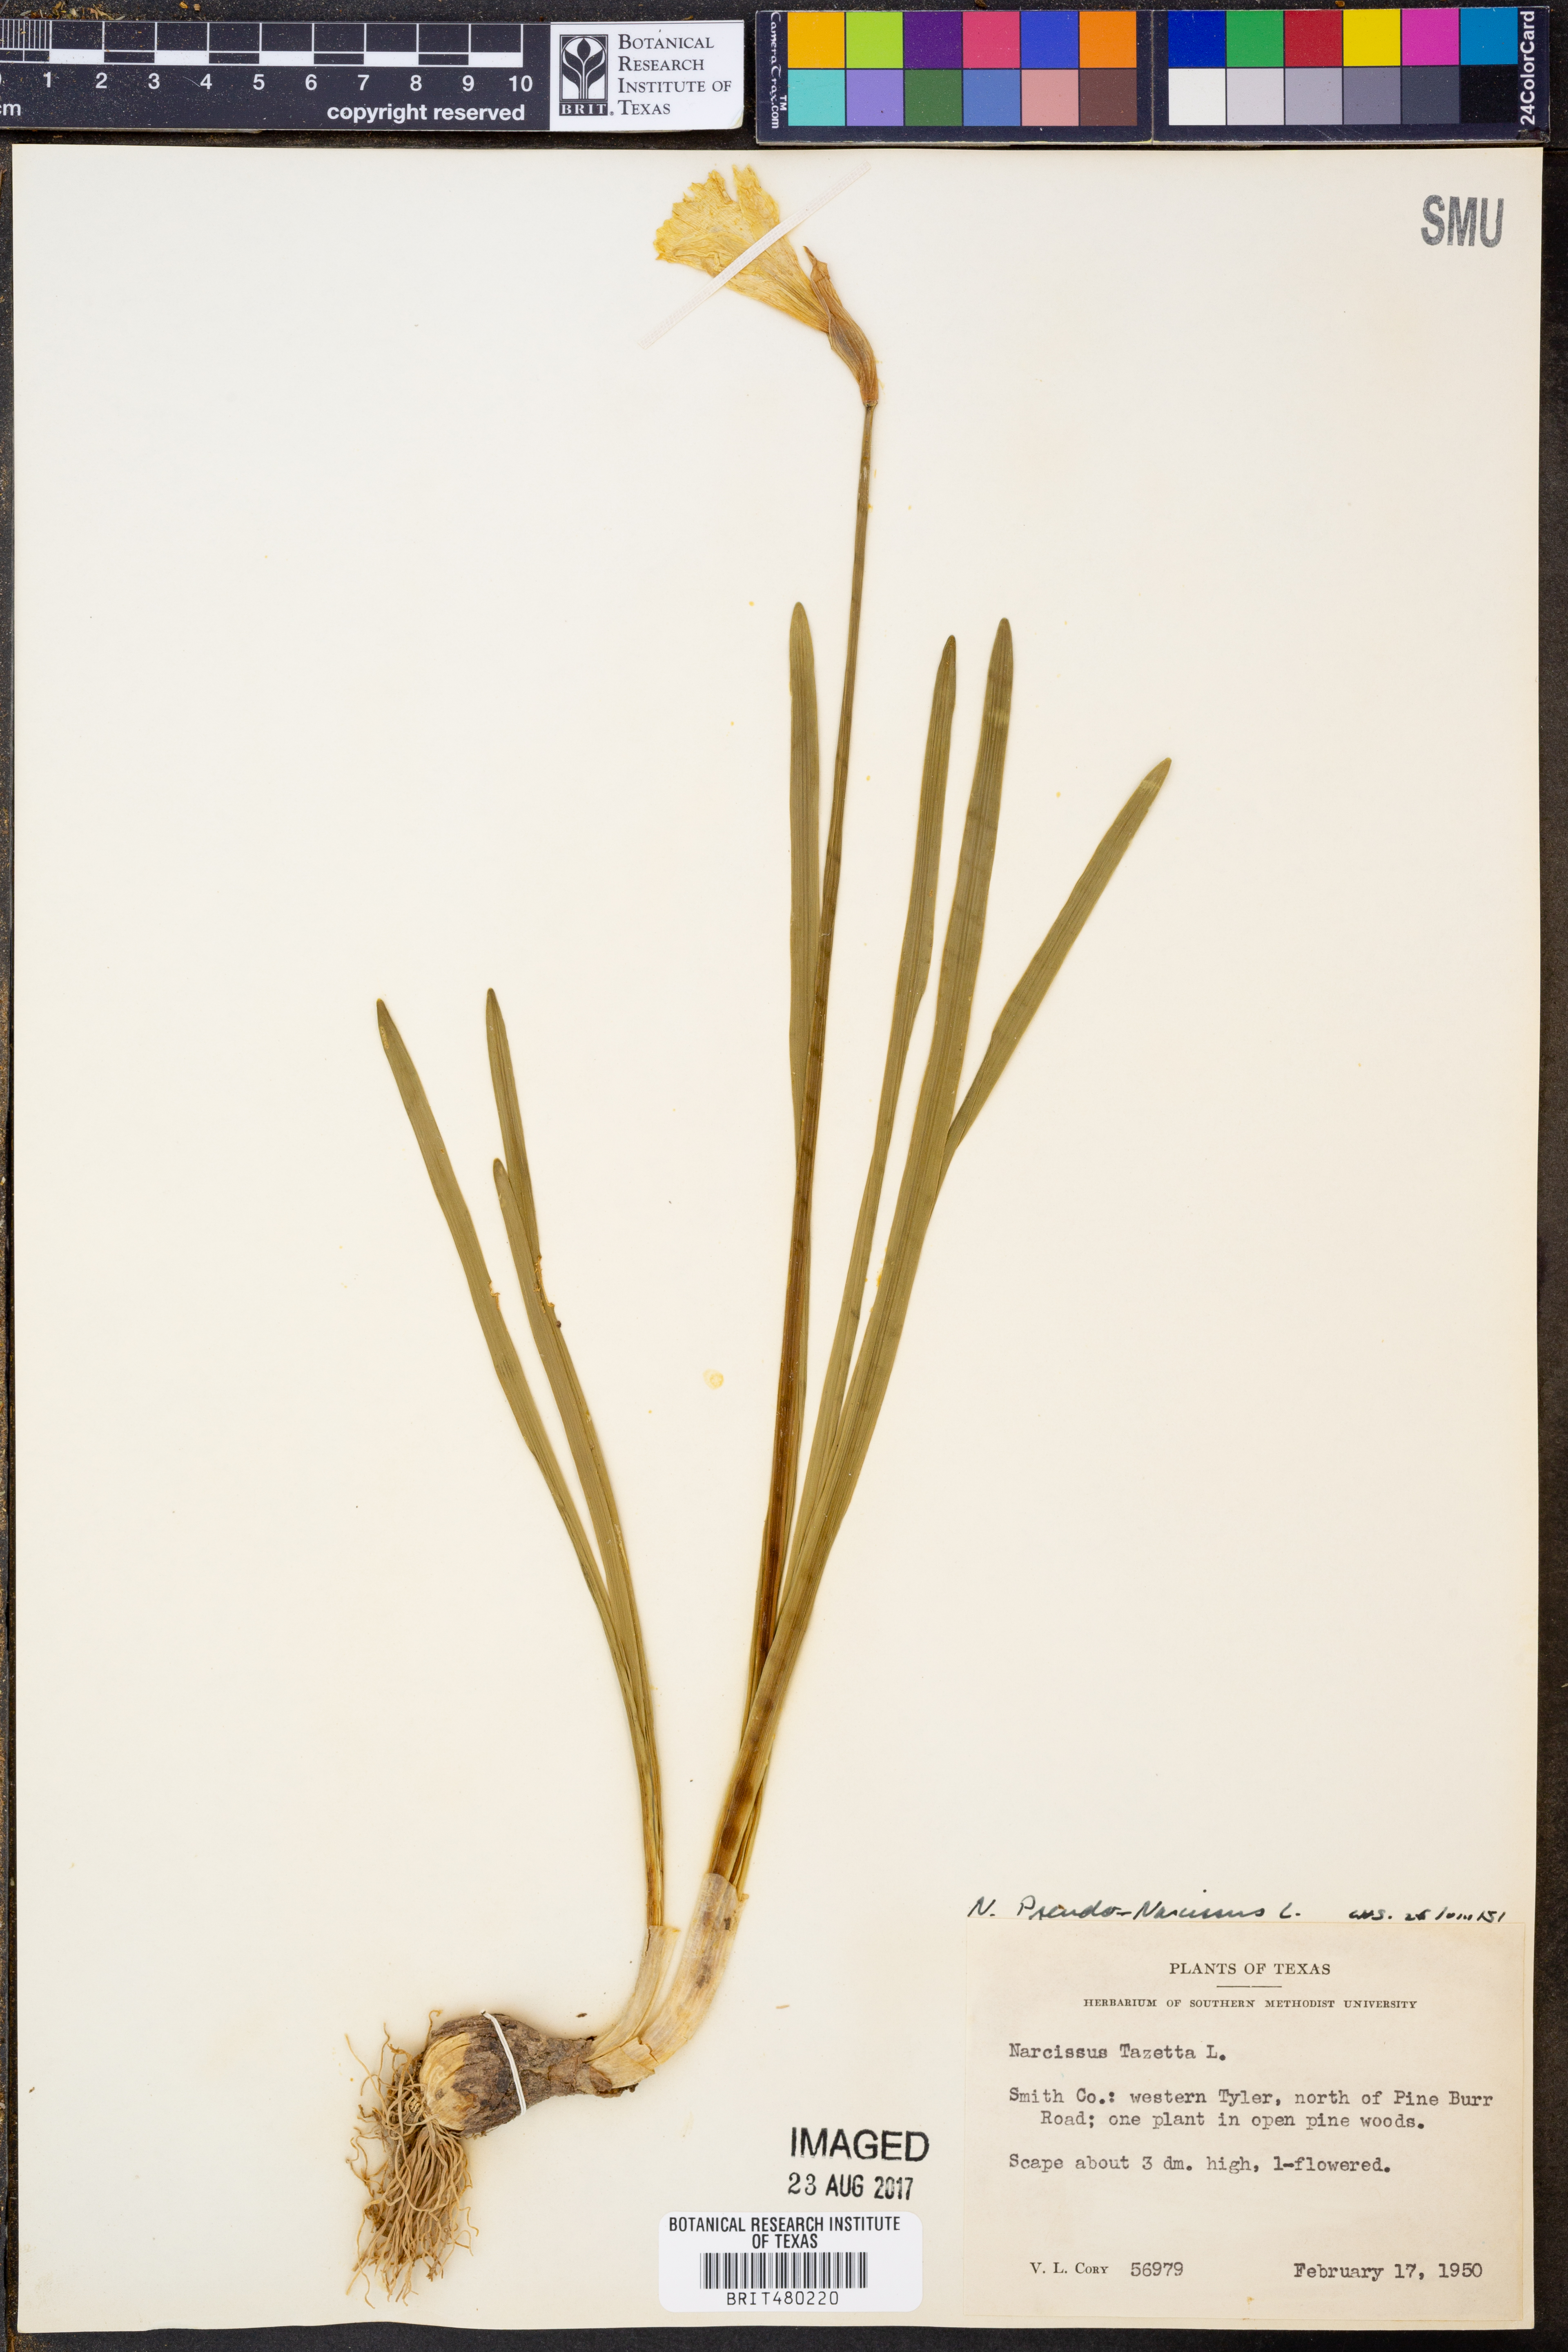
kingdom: Plantae
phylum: Tracheophyta
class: Liliopsida
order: Asparagales
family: Amaryllidaceae
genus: Narcissus
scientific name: Narcissus pseudonarcissus
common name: Daffodil
